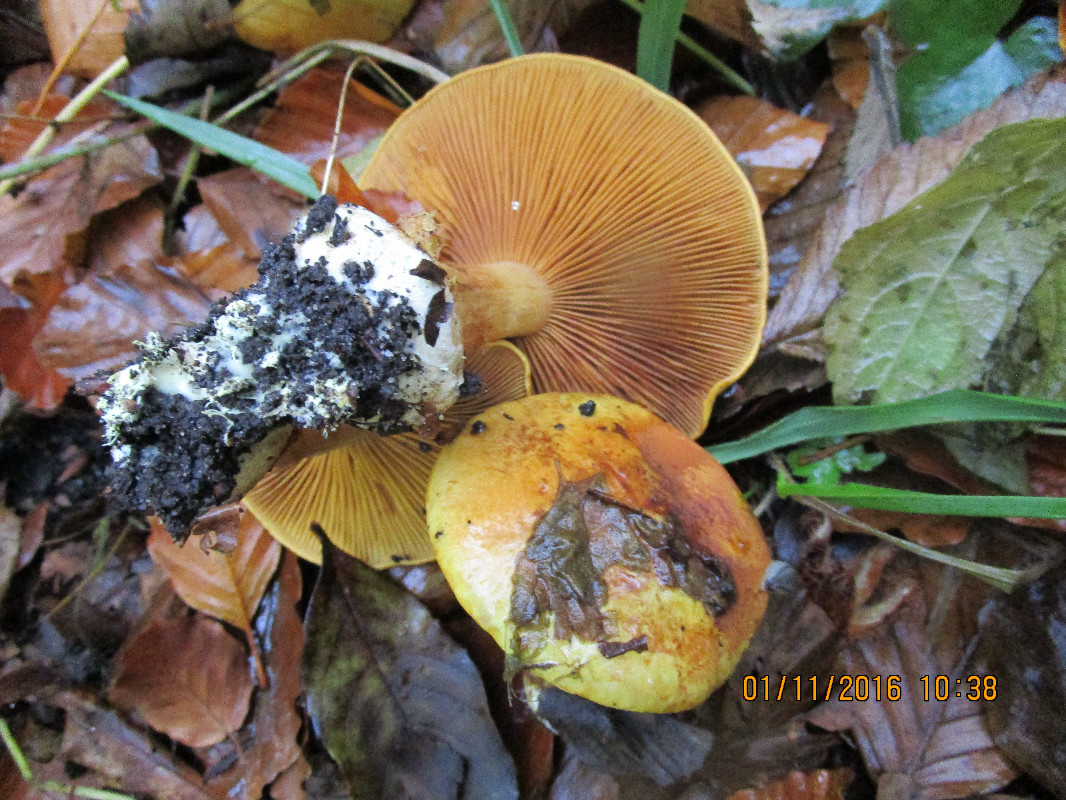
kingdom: Fungi
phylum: Basidiomycota
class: Agaricomycetes
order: Agaricales
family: Cortinariaceae
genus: Calonarius
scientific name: Calonarius elegantissimus
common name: orangegylden slørhat
